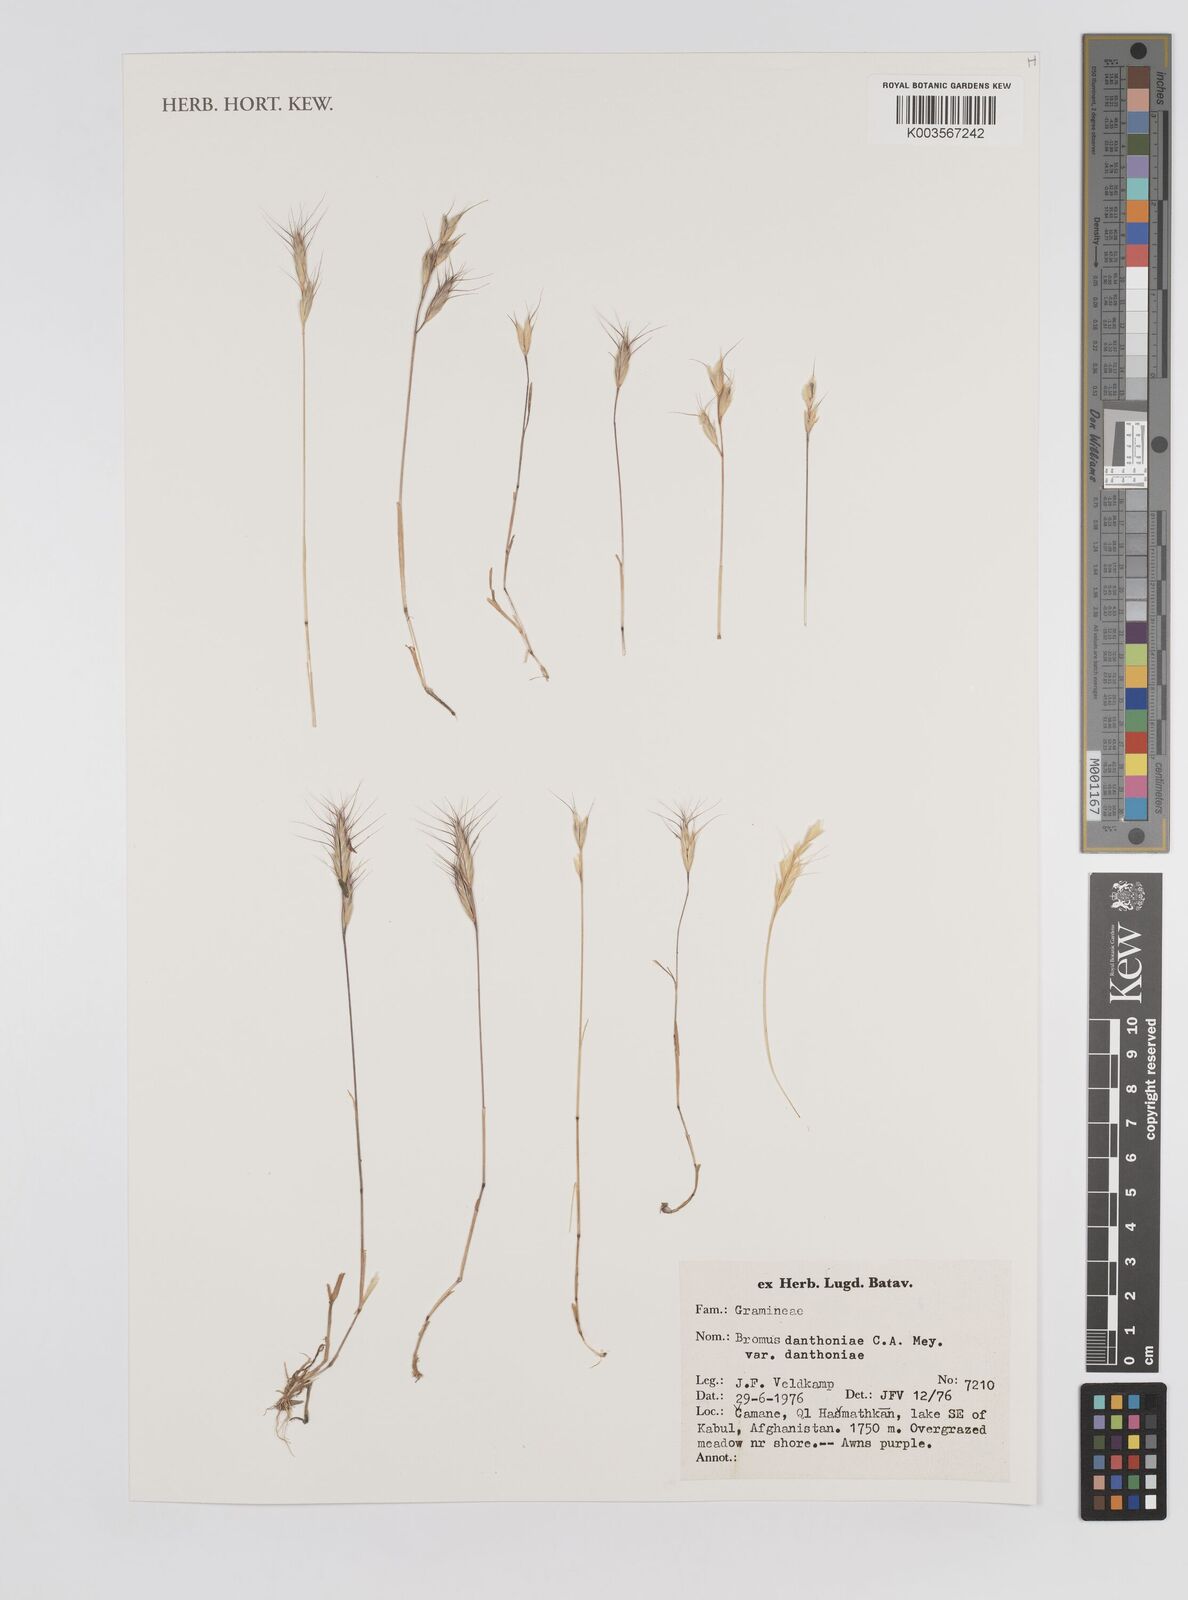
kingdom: Plantae
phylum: Tracheophyta
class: Liliopsida
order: Poales
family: Poaceae
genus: Bromus
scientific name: Bromus danthoniae
